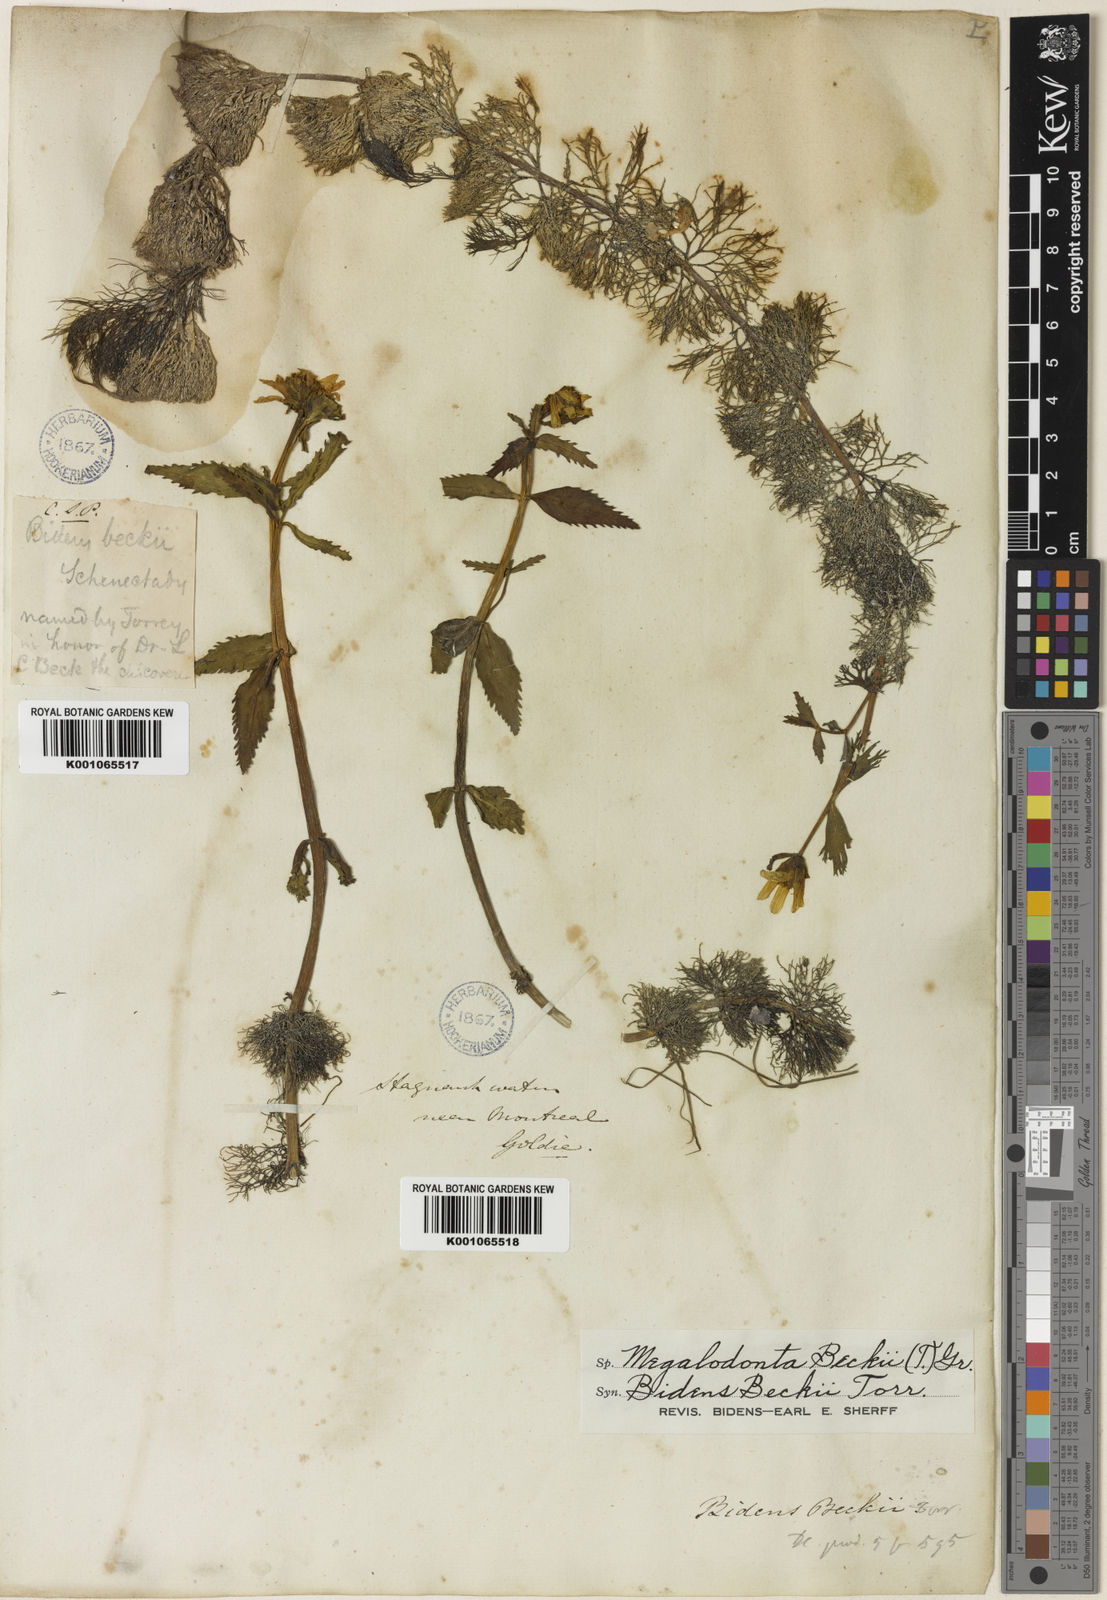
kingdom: Plantae
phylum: Tracheophyta
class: Magnoliopsida
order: Asterales
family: Asteraceae
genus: Bidens
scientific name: Bidens
